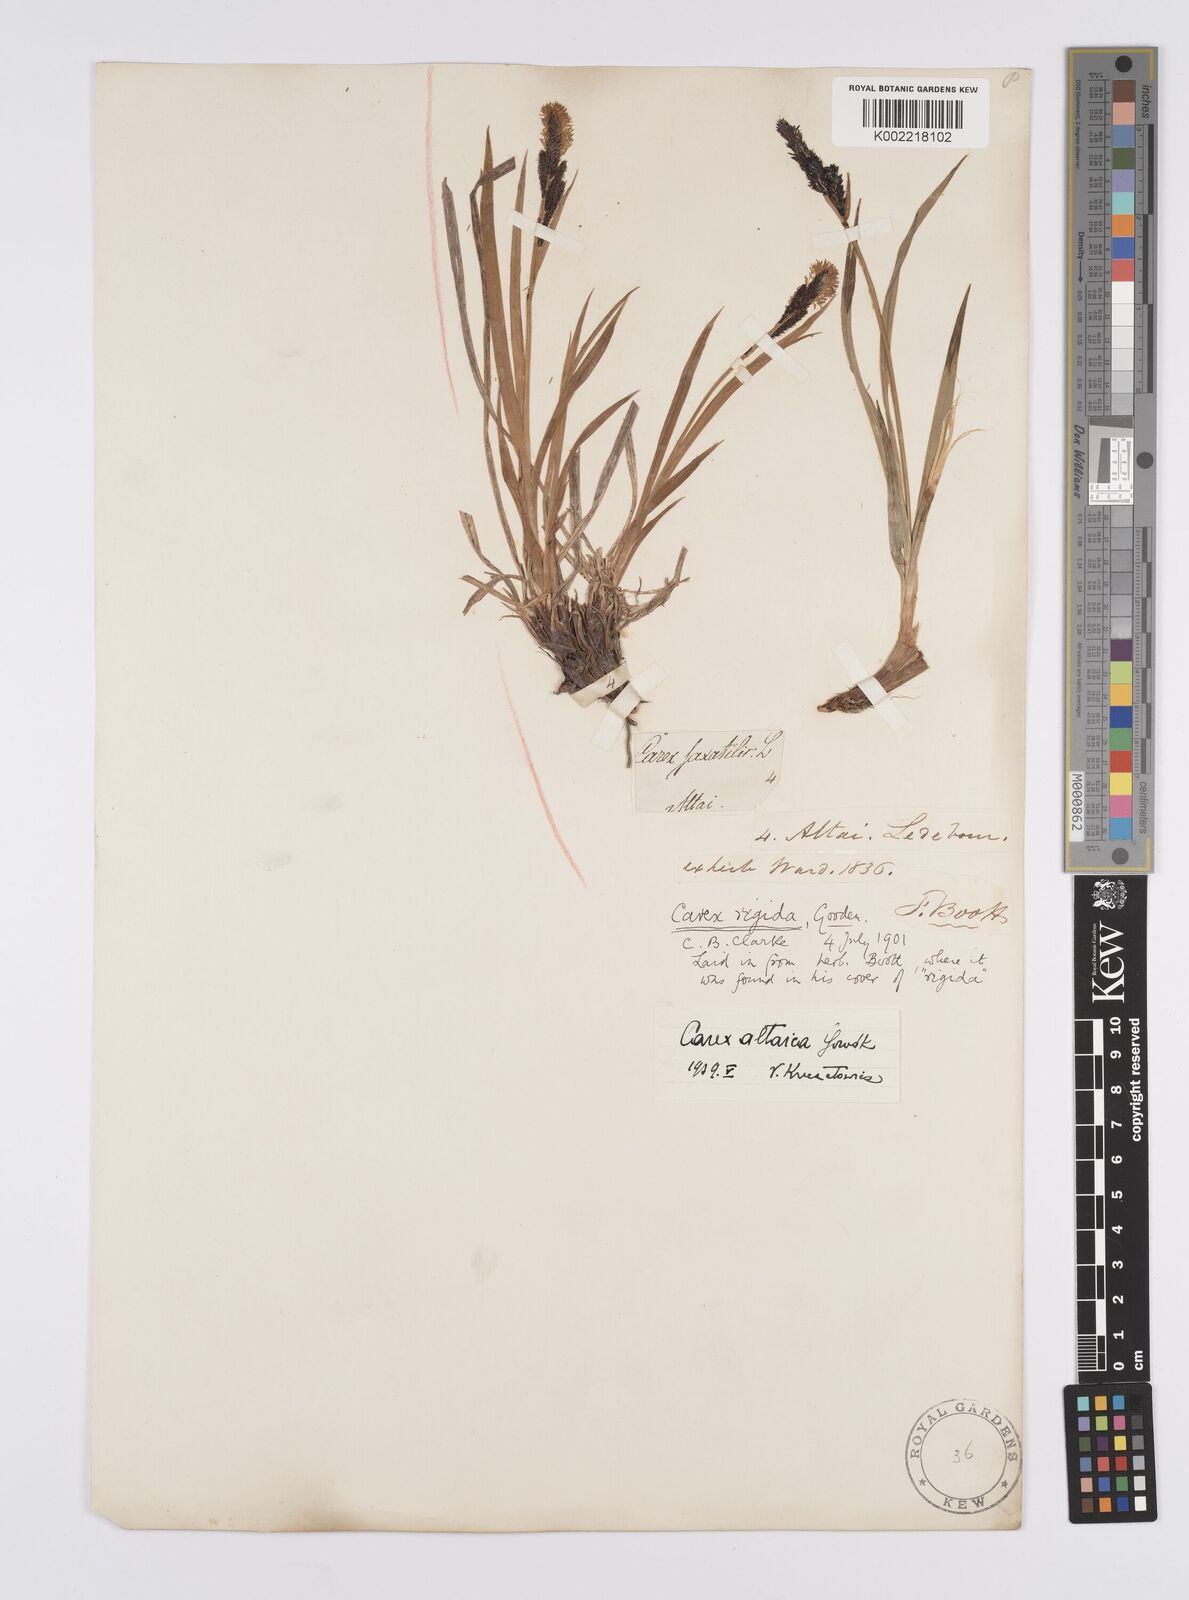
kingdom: Plantae
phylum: Tracheophyta
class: Liliopsida
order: Poales
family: Cyperaceae
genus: Carex
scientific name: Carex altaica
